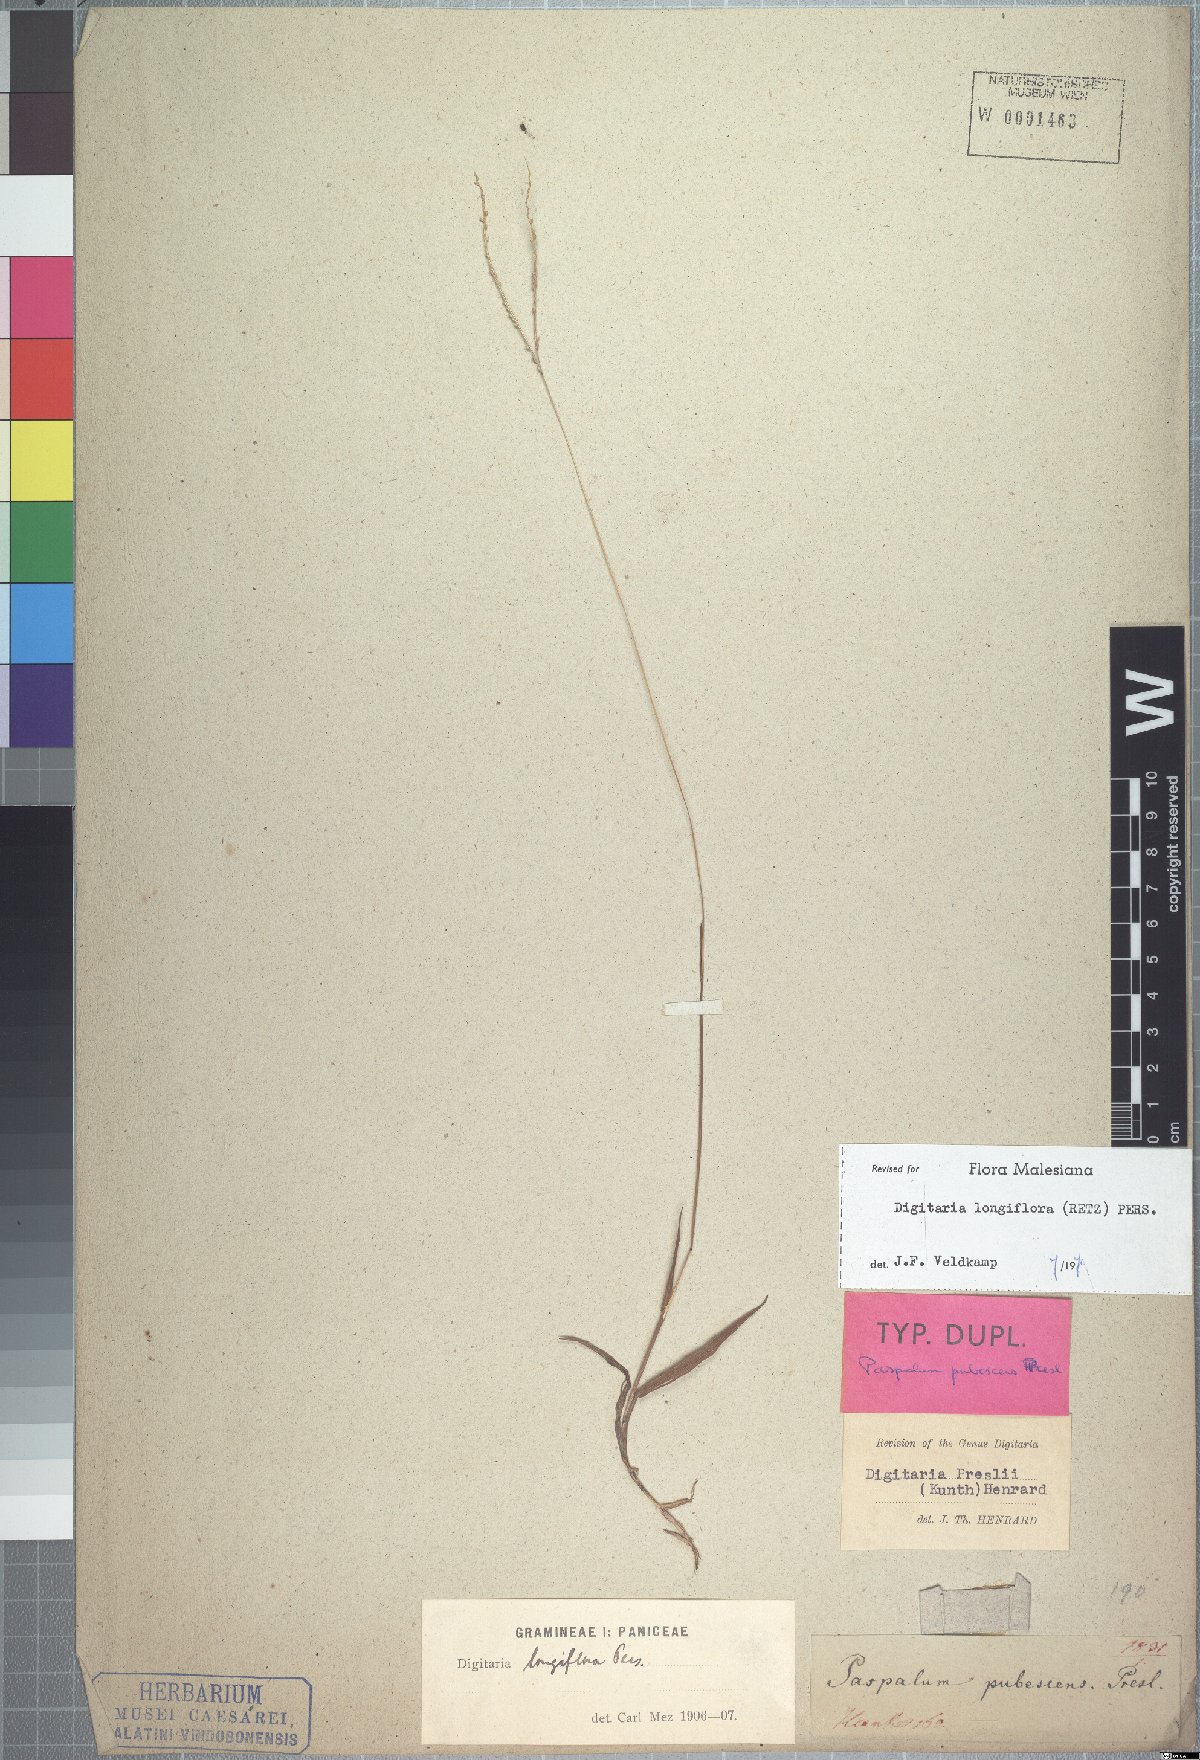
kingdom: Plantae
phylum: Tracheophyta
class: Liliopsida
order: Poales
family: Poaceae
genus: Digitaria
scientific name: Digitaria longiflora
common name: Wire crabgrass
